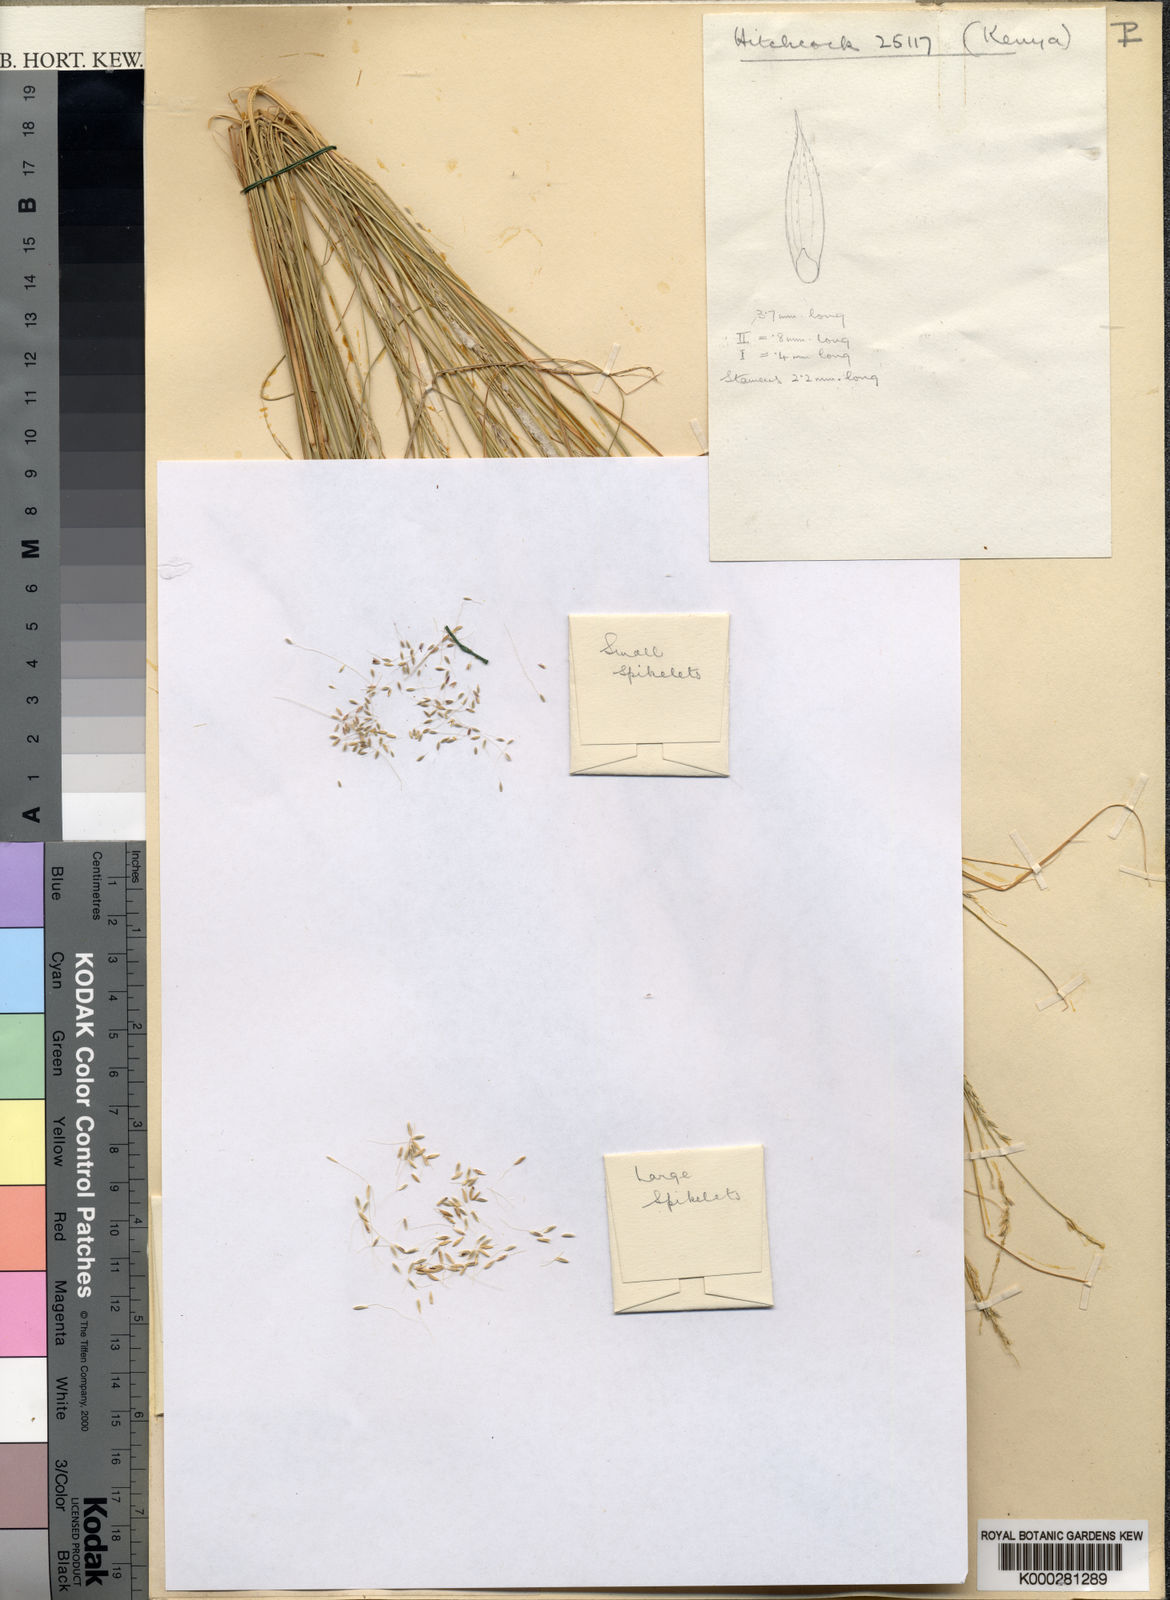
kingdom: Plantae
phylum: Tracheophyta
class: Liliopsida
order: Poales
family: Poaceae
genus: Cenchrus
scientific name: Cenchrus procerus
